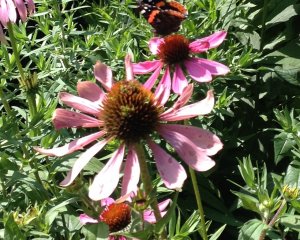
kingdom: Animalia
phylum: Arthropoda
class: Insecta
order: Lepidoptera
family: Nymphalidae
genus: Vanessa
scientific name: Vanessa atalanta
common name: Red Admiral
